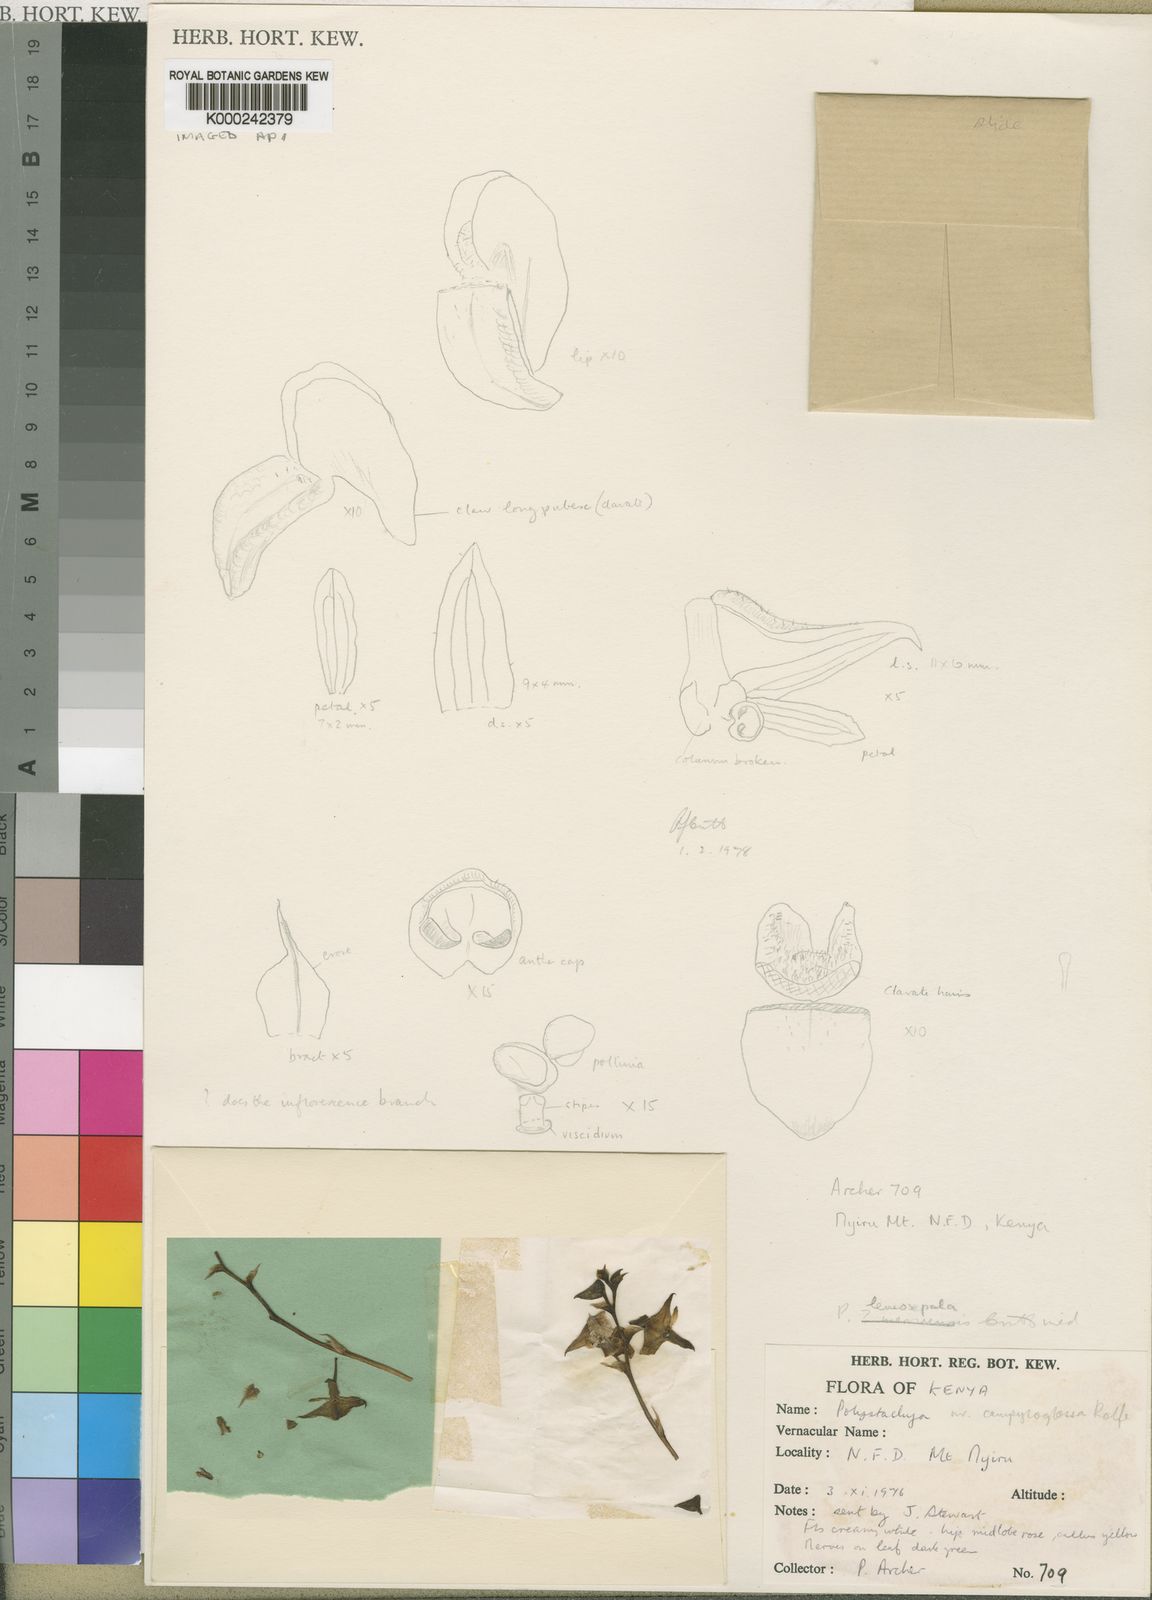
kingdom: Plantae
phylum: Tracheophyta
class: Liliopsida
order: Asparagales
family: Orchidaceae
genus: Polystachya
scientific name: Polystachya piersii
